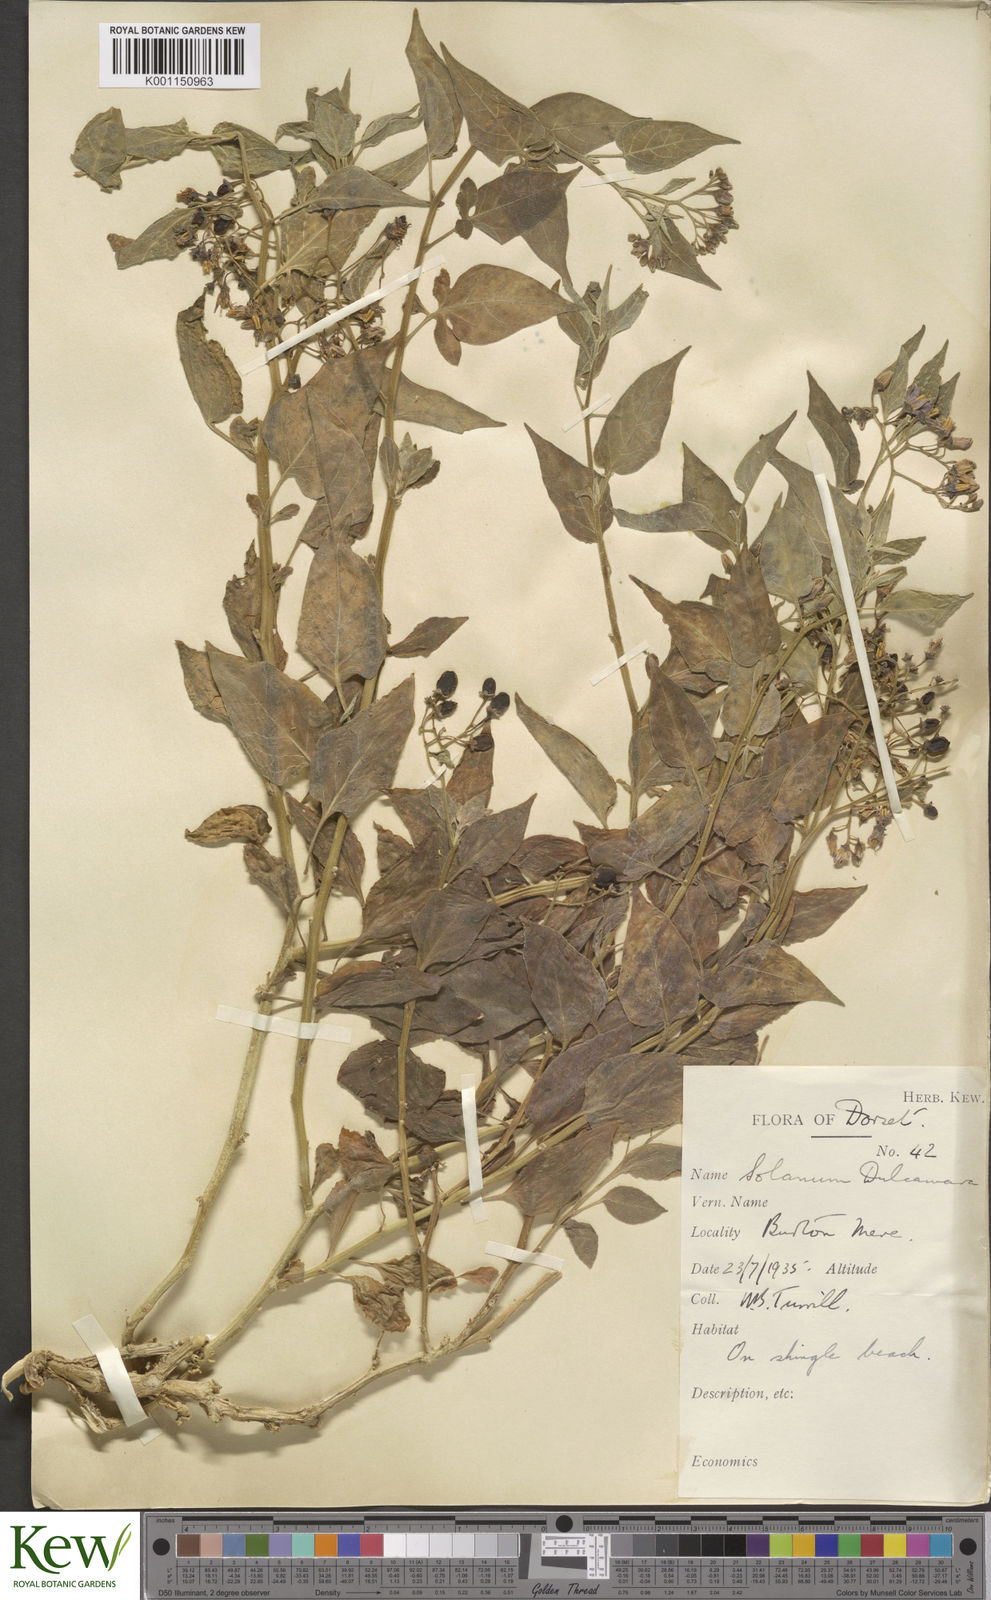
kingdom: Plantae
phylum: Tracheophyta
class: Magnoliopsida
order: Solanales
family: Solanaceae
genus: Solanum
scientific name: Solanum dulcamara
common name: Climbing nightshade
